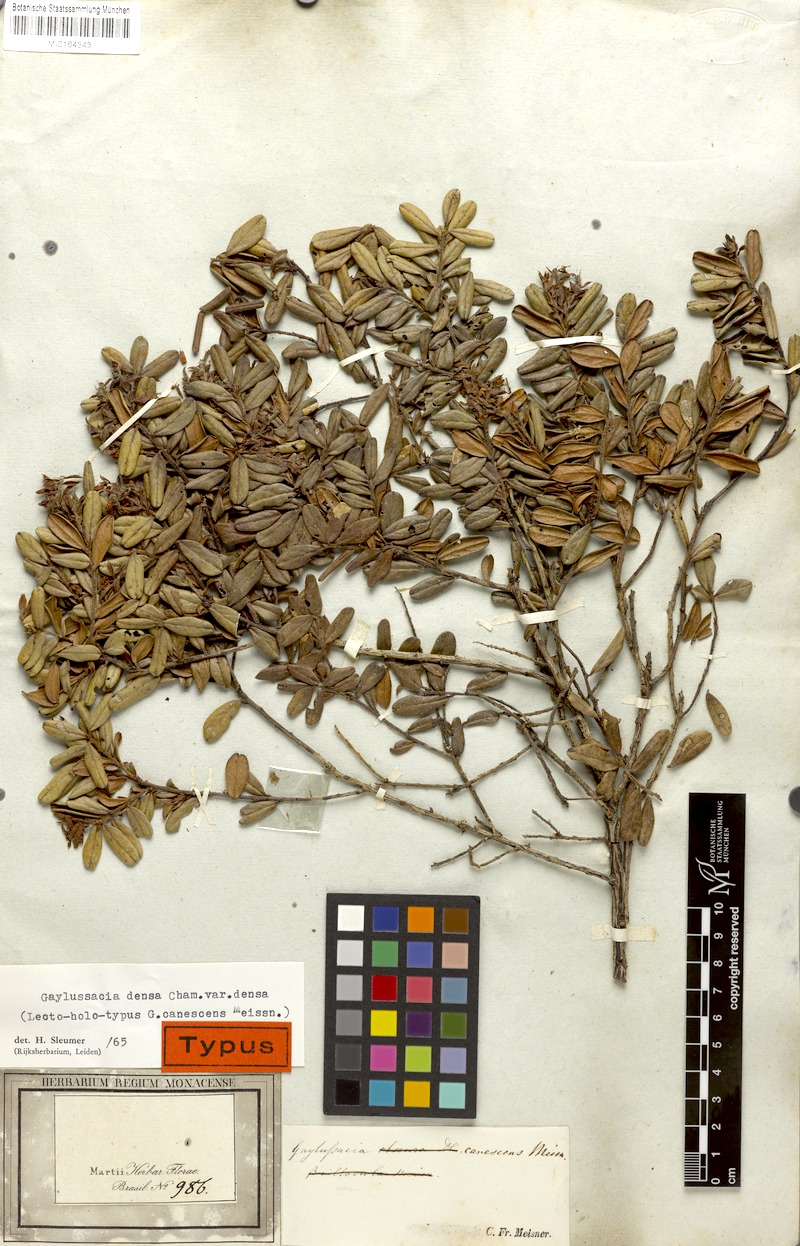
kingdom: Plantae
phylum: Tracheophyta
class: Magnoliopsida
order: Ericales
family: Ericaceae
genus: Gaylussacia
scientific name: Gaylussacia densa
